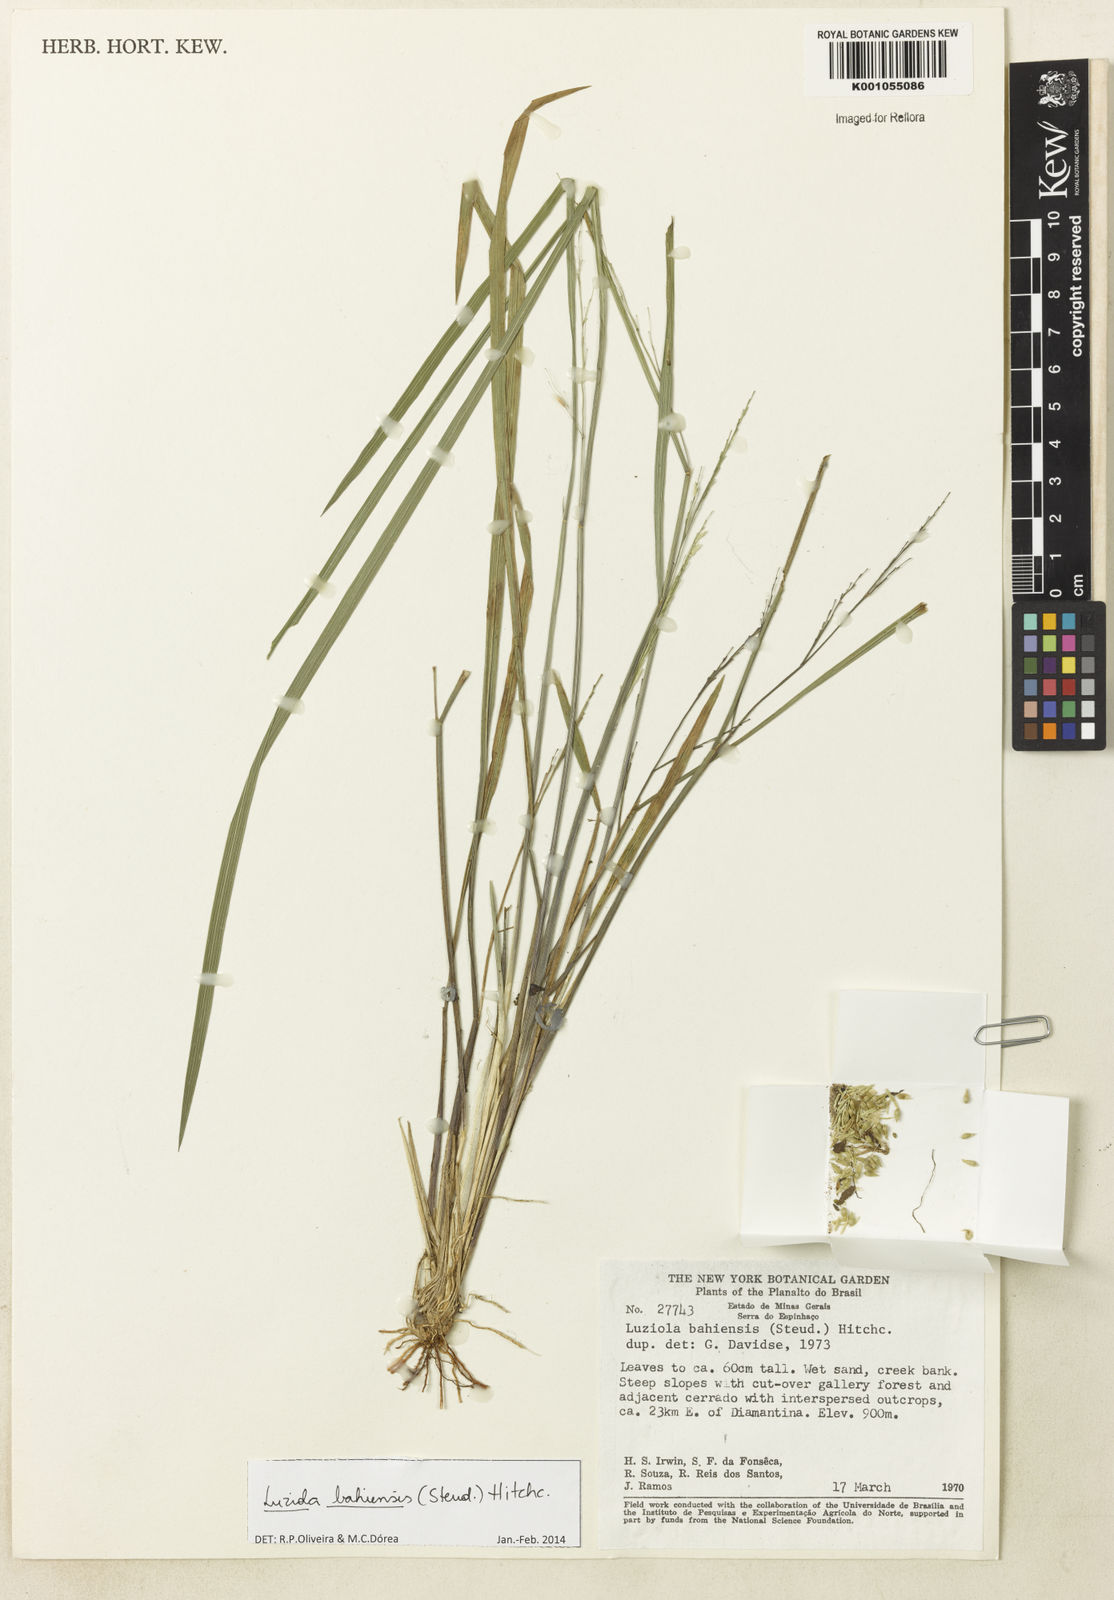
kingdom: Plantae
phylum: Tracheophyta
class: Liliopsida
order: Poales
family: Poaceae
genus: Luziola
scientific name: Luziola bahiensis
